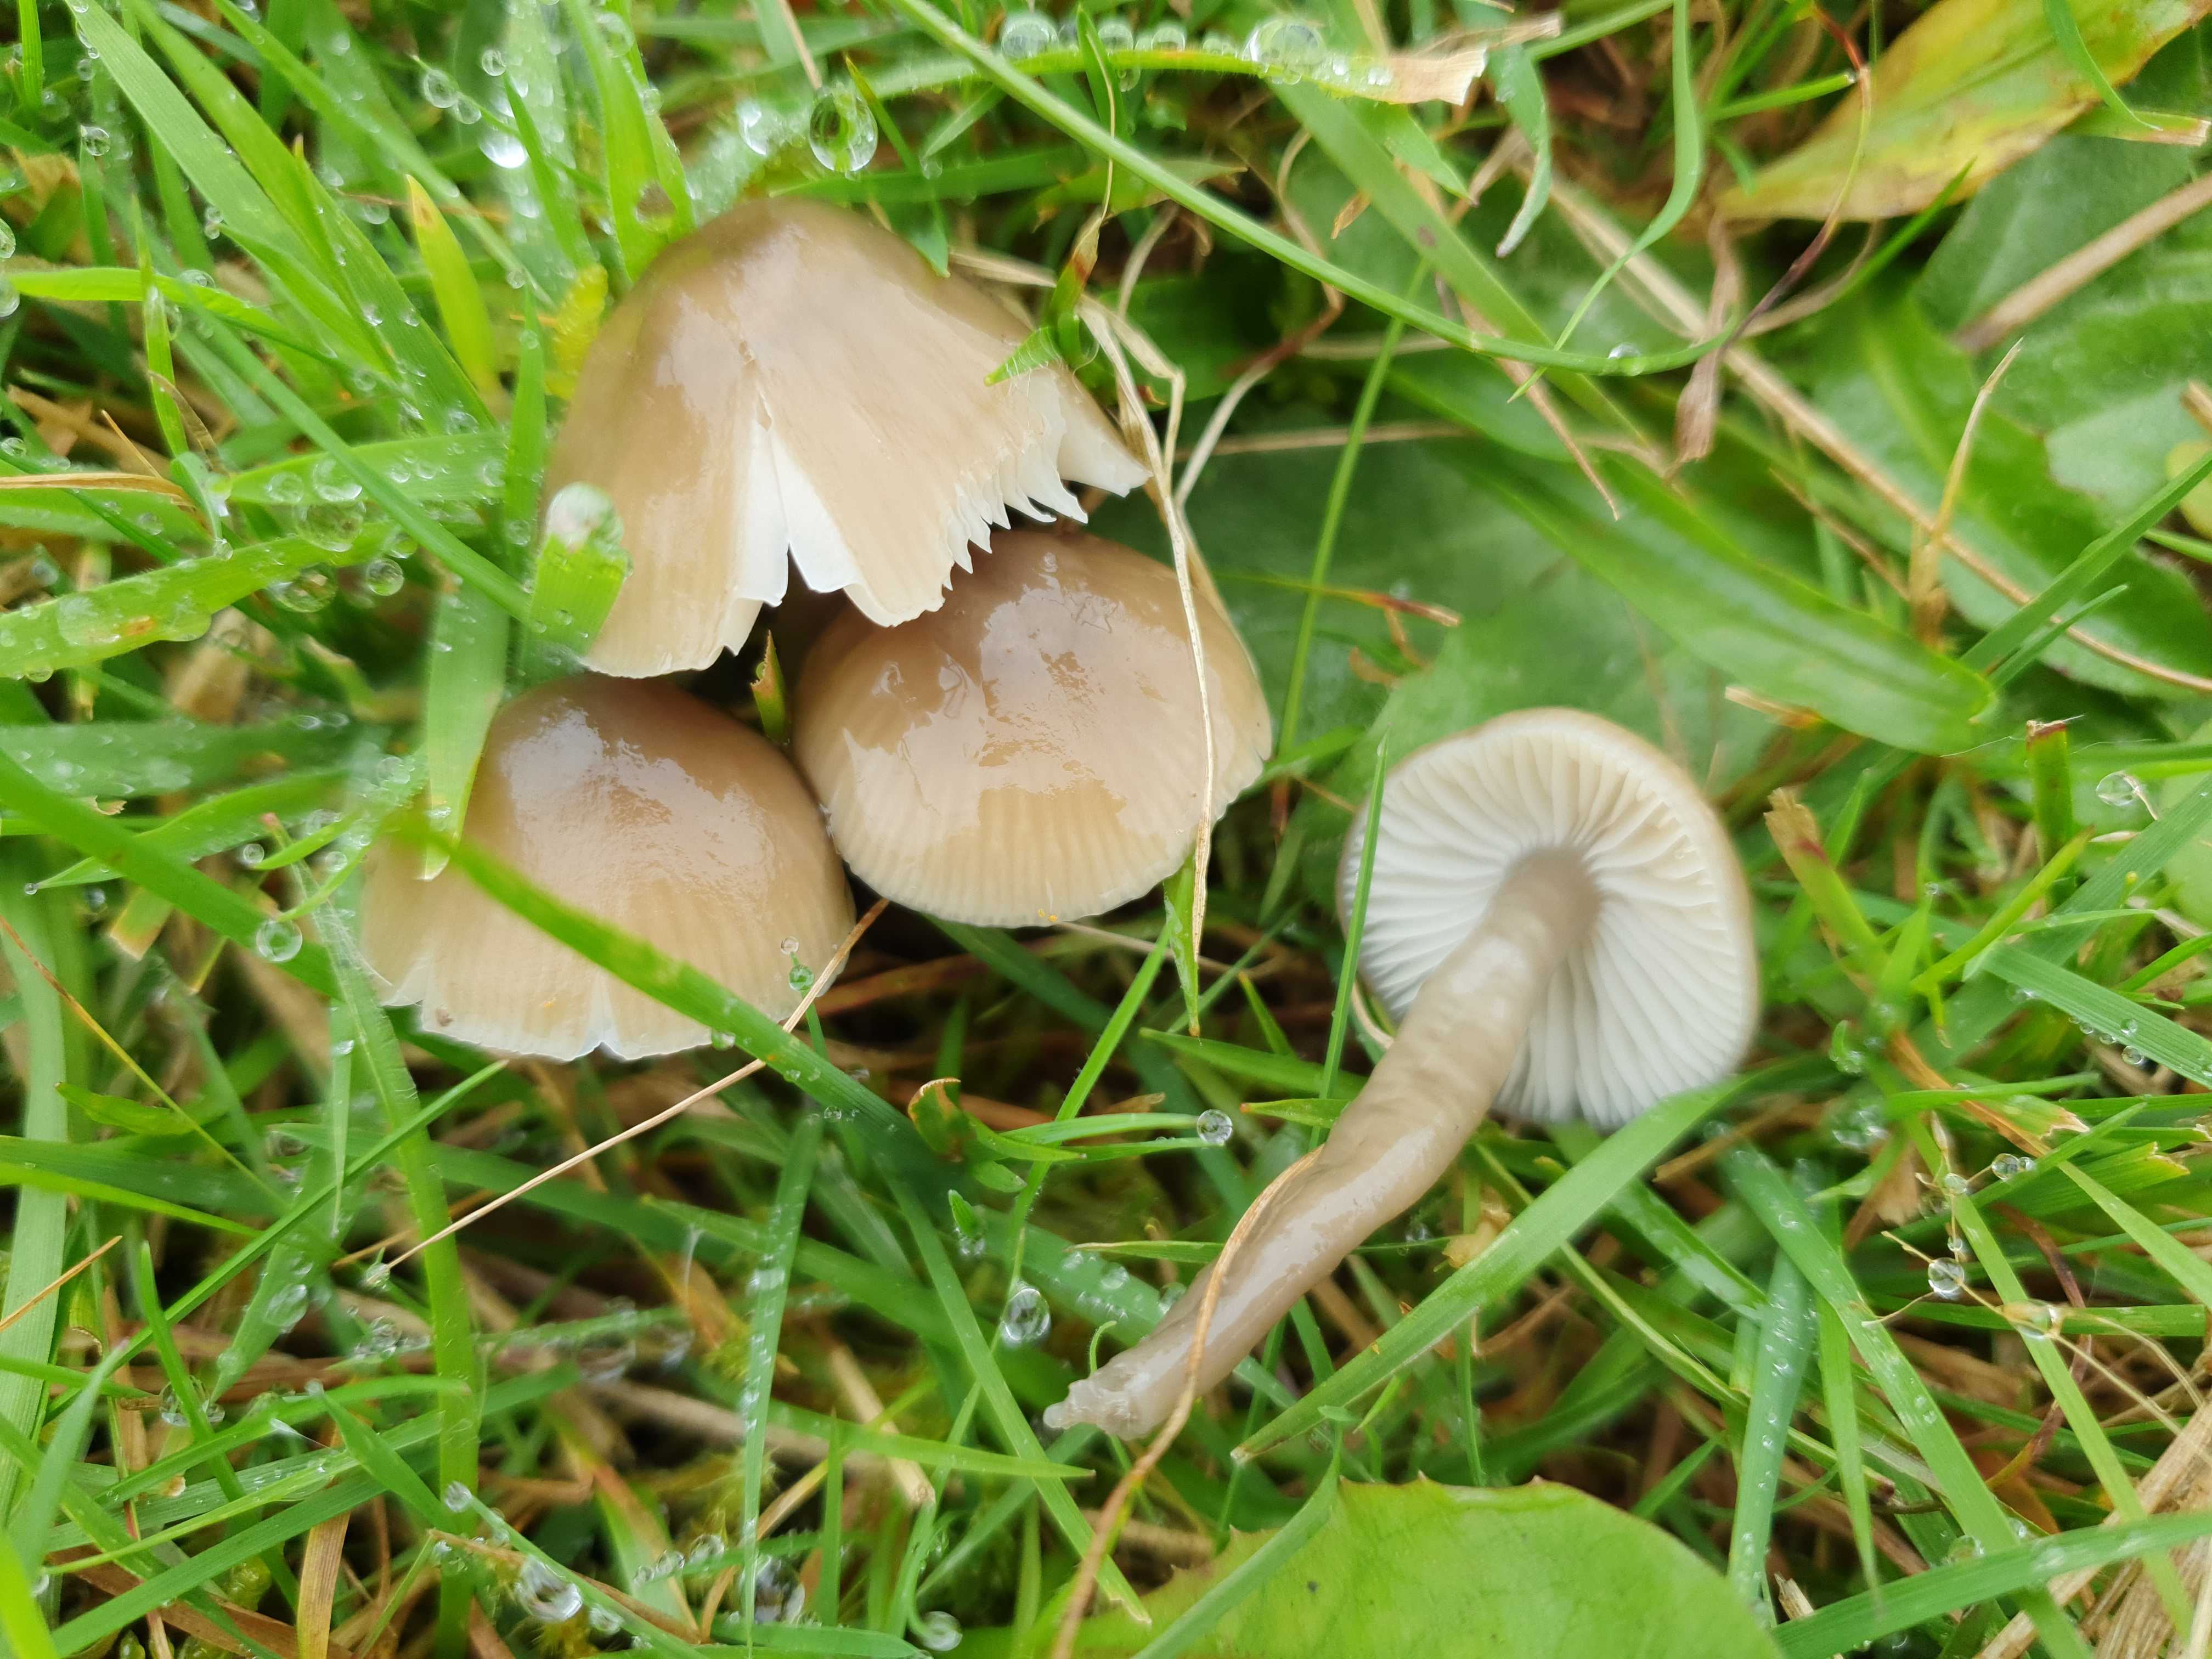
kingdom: Fungi
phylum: Basidiomycota
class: Agaricomycetes
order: Agaricales
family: Hygrophoraceae
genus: Gliophorus
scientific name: Gliophorus irrigatus
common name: slimet vokshat
